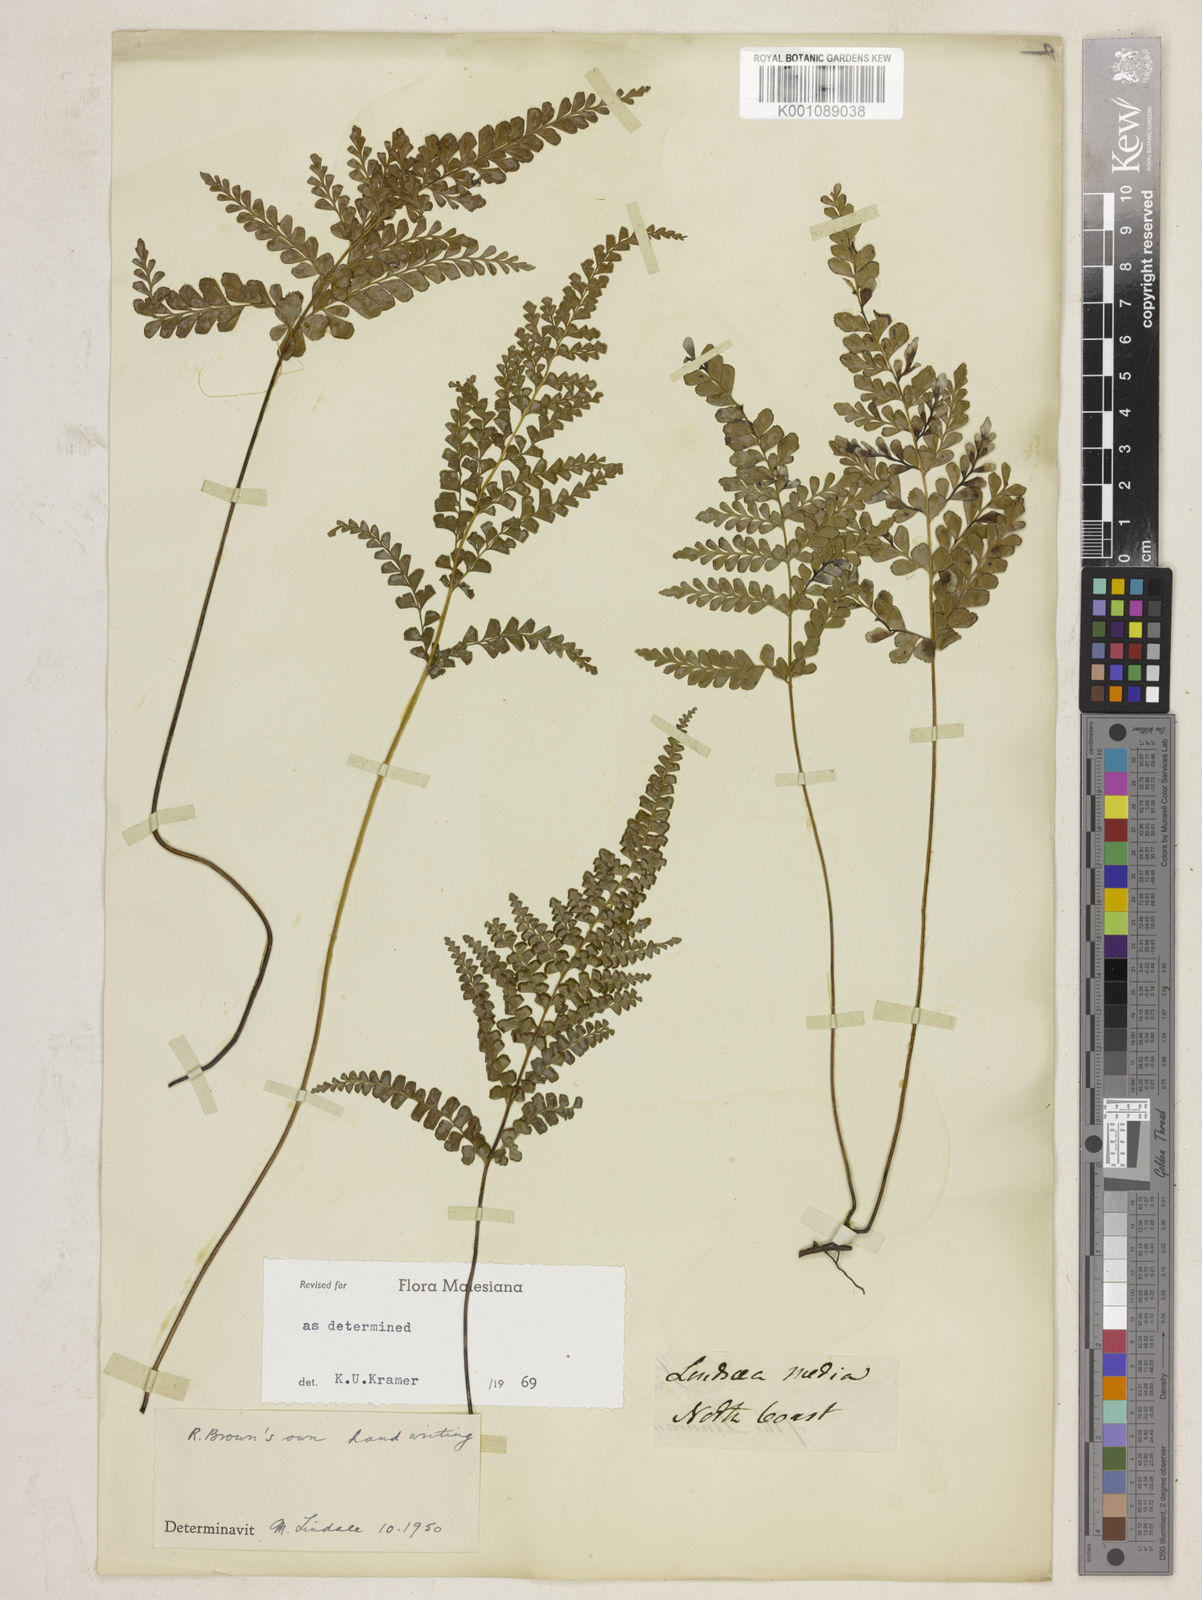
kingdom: Plantae
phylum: Tracheophyta
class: Polypodiopsida
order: Polypodiales
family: Lindsaeaceae
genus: Lindsaea
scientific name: Lindsaea media
